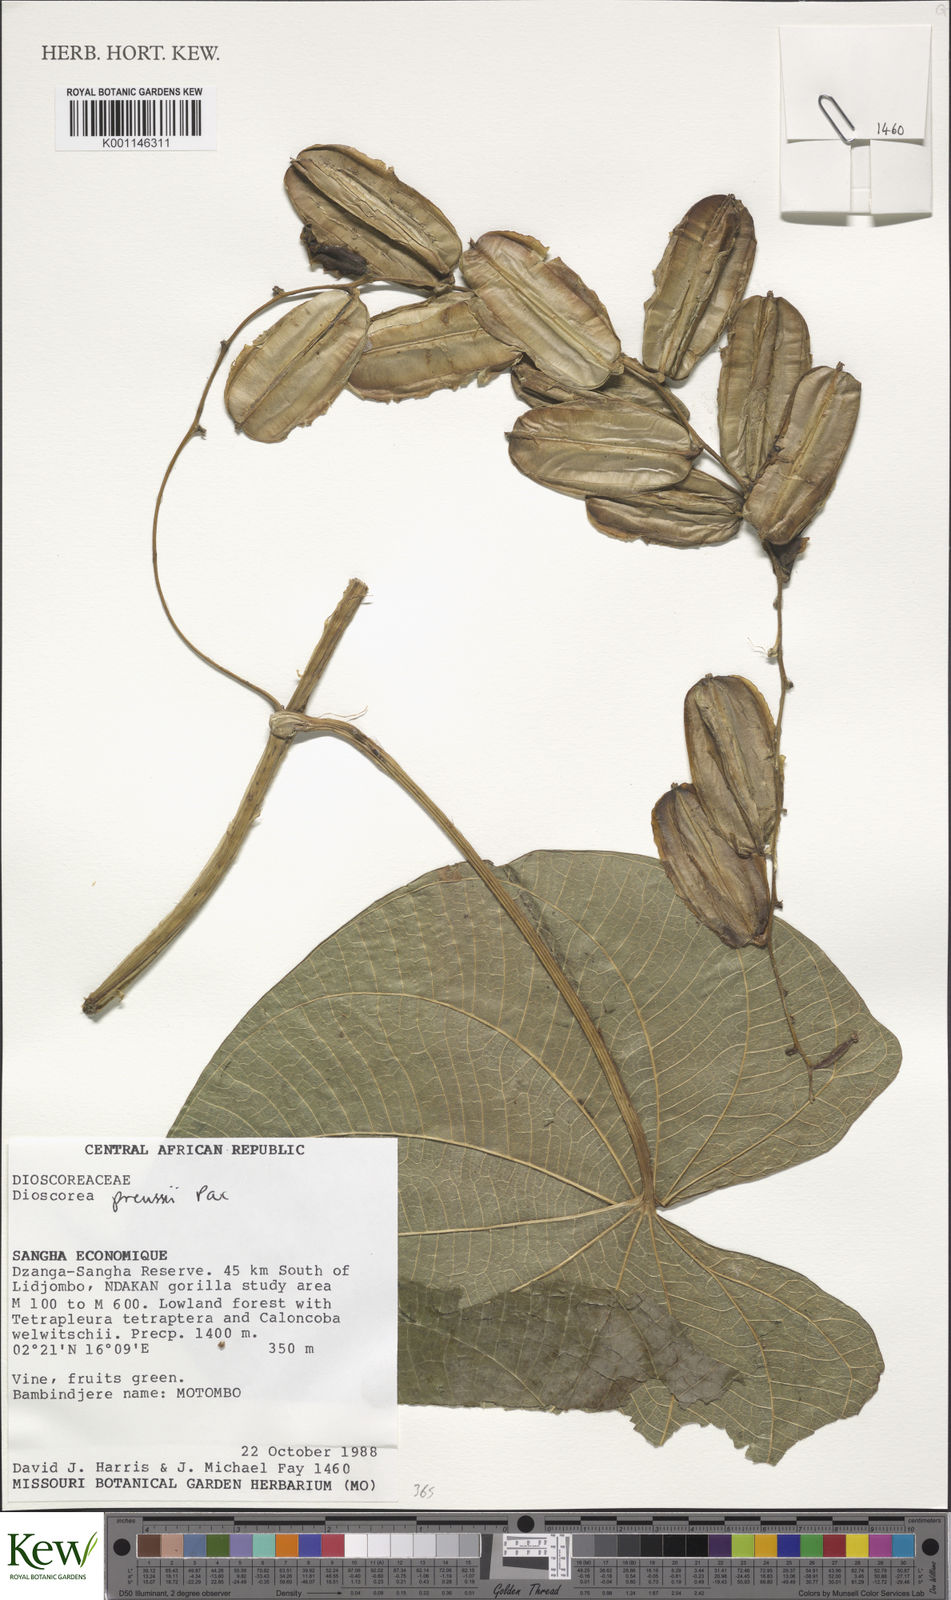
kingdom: Plantae
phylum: Tracheophyta
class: Liliopsida
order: Dioscoreales
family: Dioscoreaceae
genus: Dioscorea
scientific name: Dioscorea preussii
